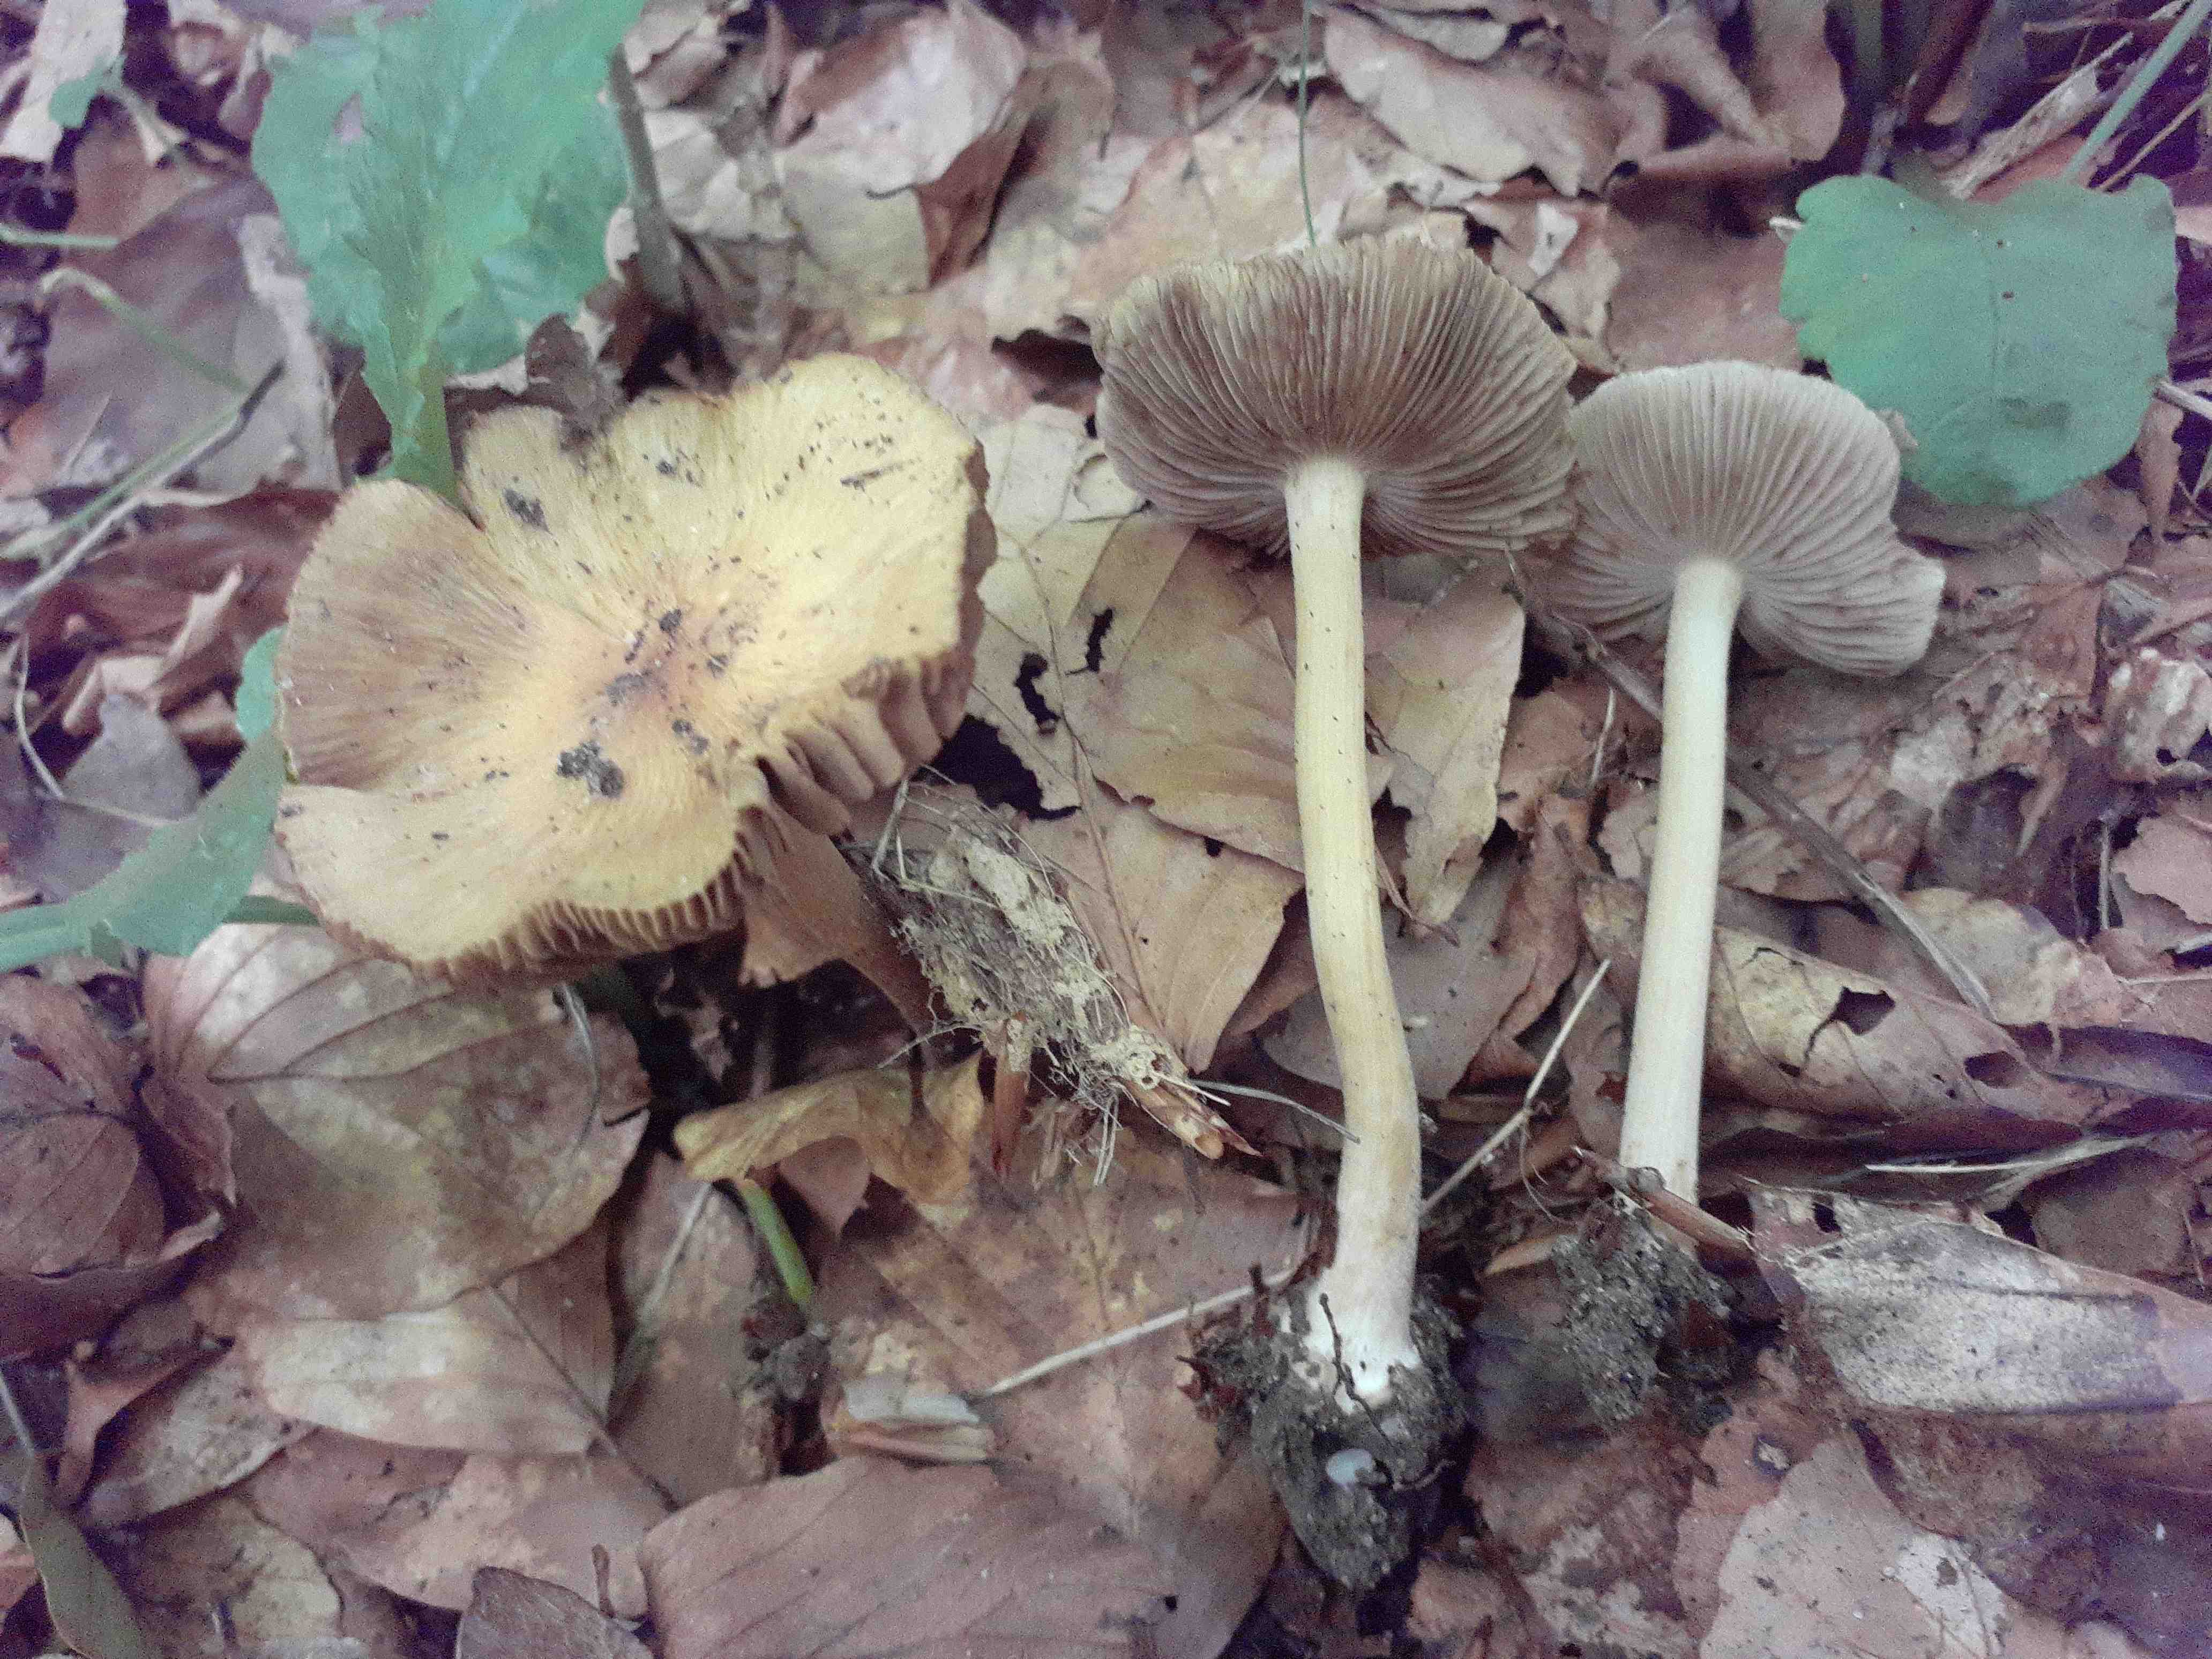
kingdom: Fungi
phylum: Basidiomycota
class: Agaricomycetes
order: Agaricales
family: Inocybaceae
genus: Inocybe
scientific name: Inocybe vaurasii
